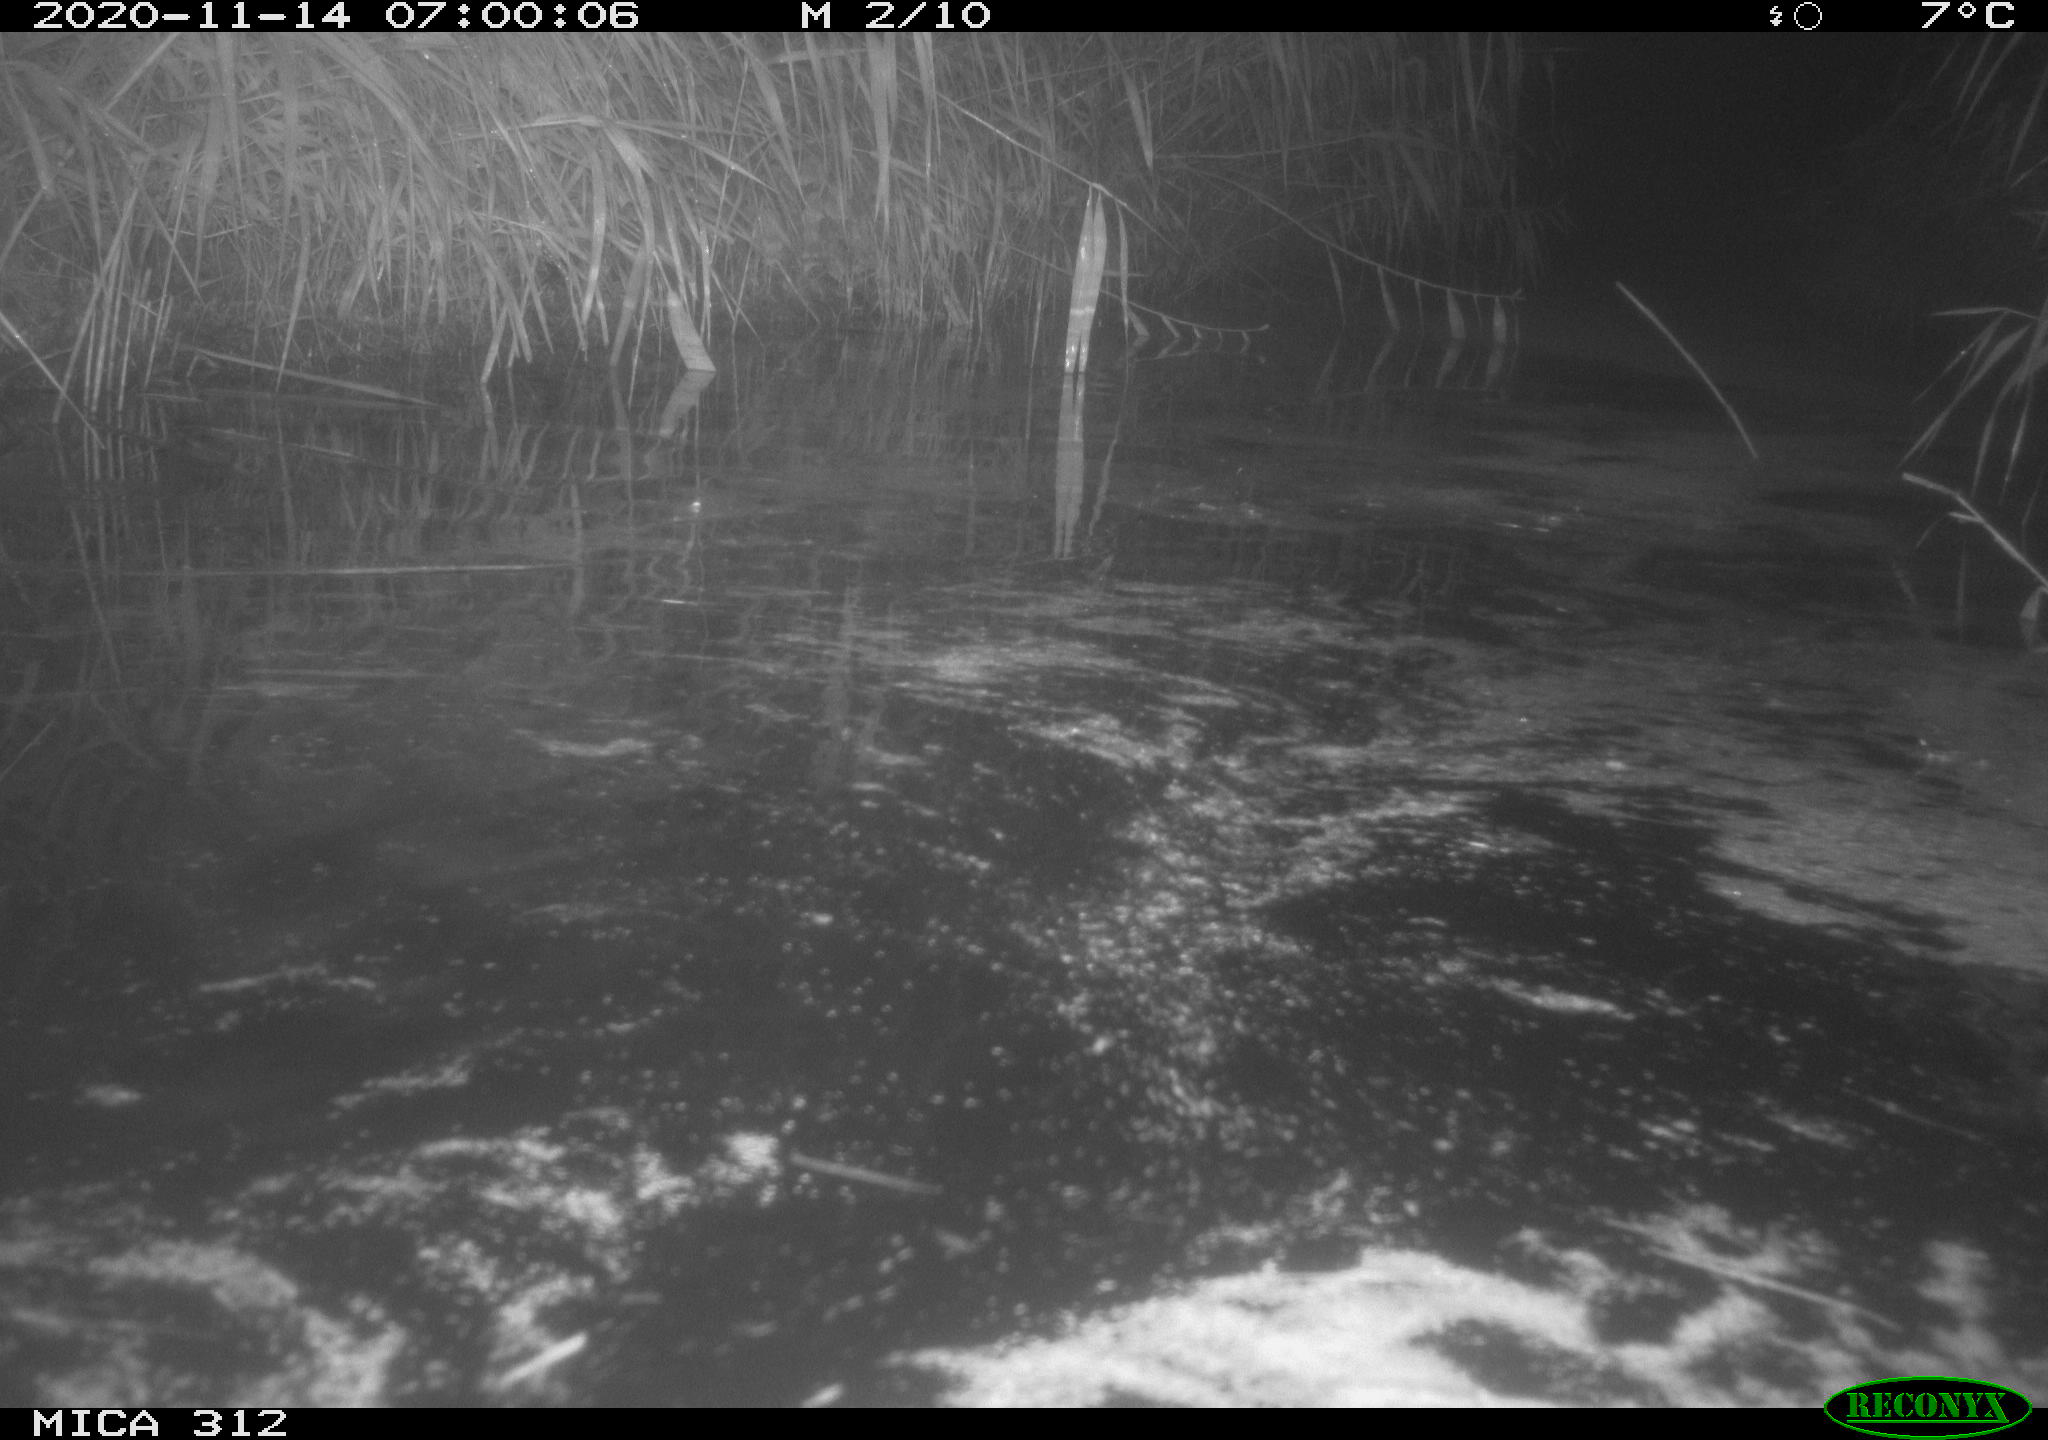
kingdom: Animalia
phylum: Chordata
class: Mammalia
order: Rodentia
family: Cricetidae
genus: Ondatra
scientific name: Ondatra zibethicus
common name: Muskrat
